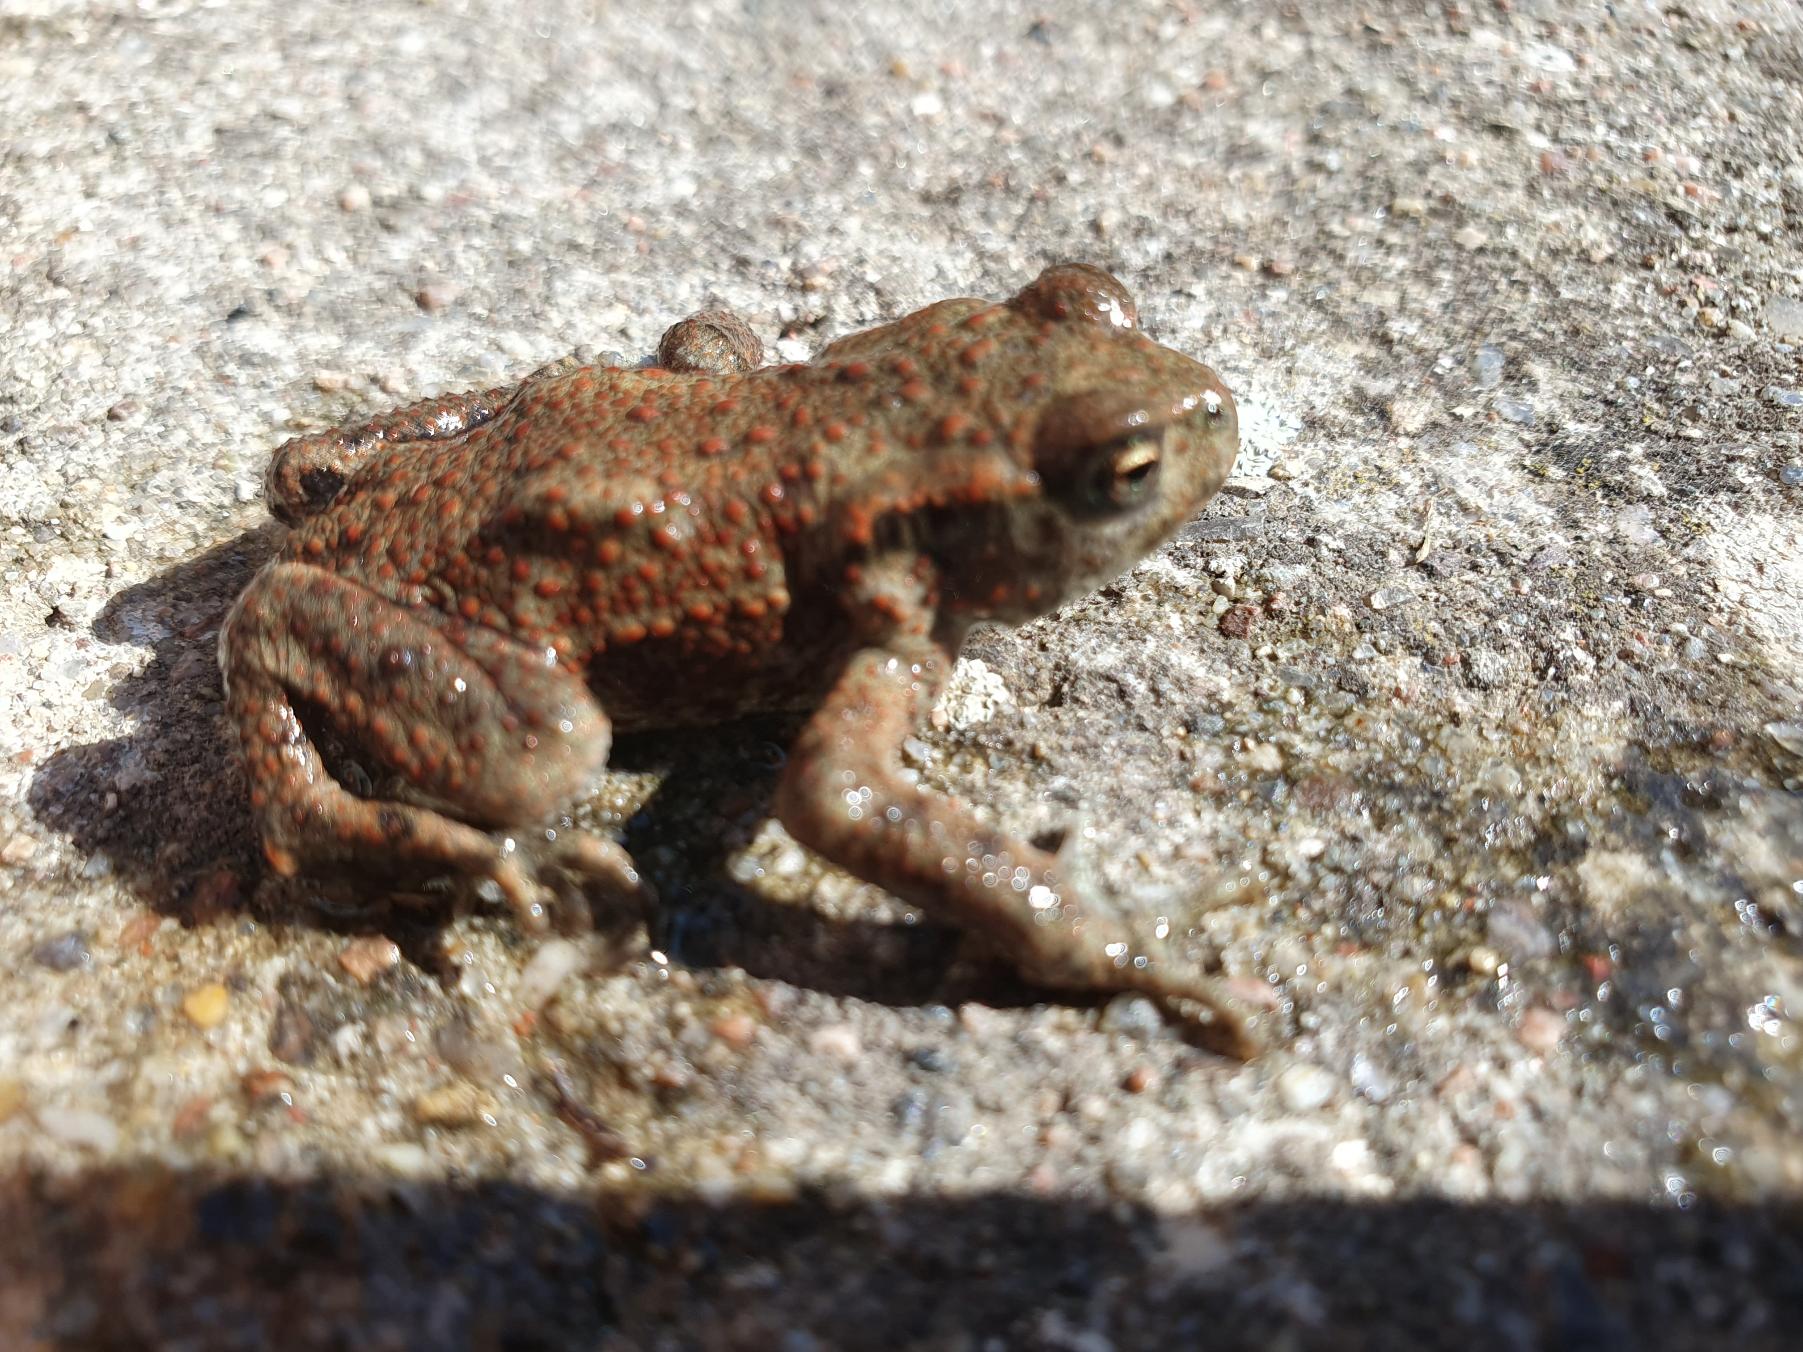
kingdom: Animalia
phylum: Chordata
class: Amphibia
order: Anura
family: Bufonidae
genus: Bufo
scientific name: Bufo bufo
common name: Skrubtudse
